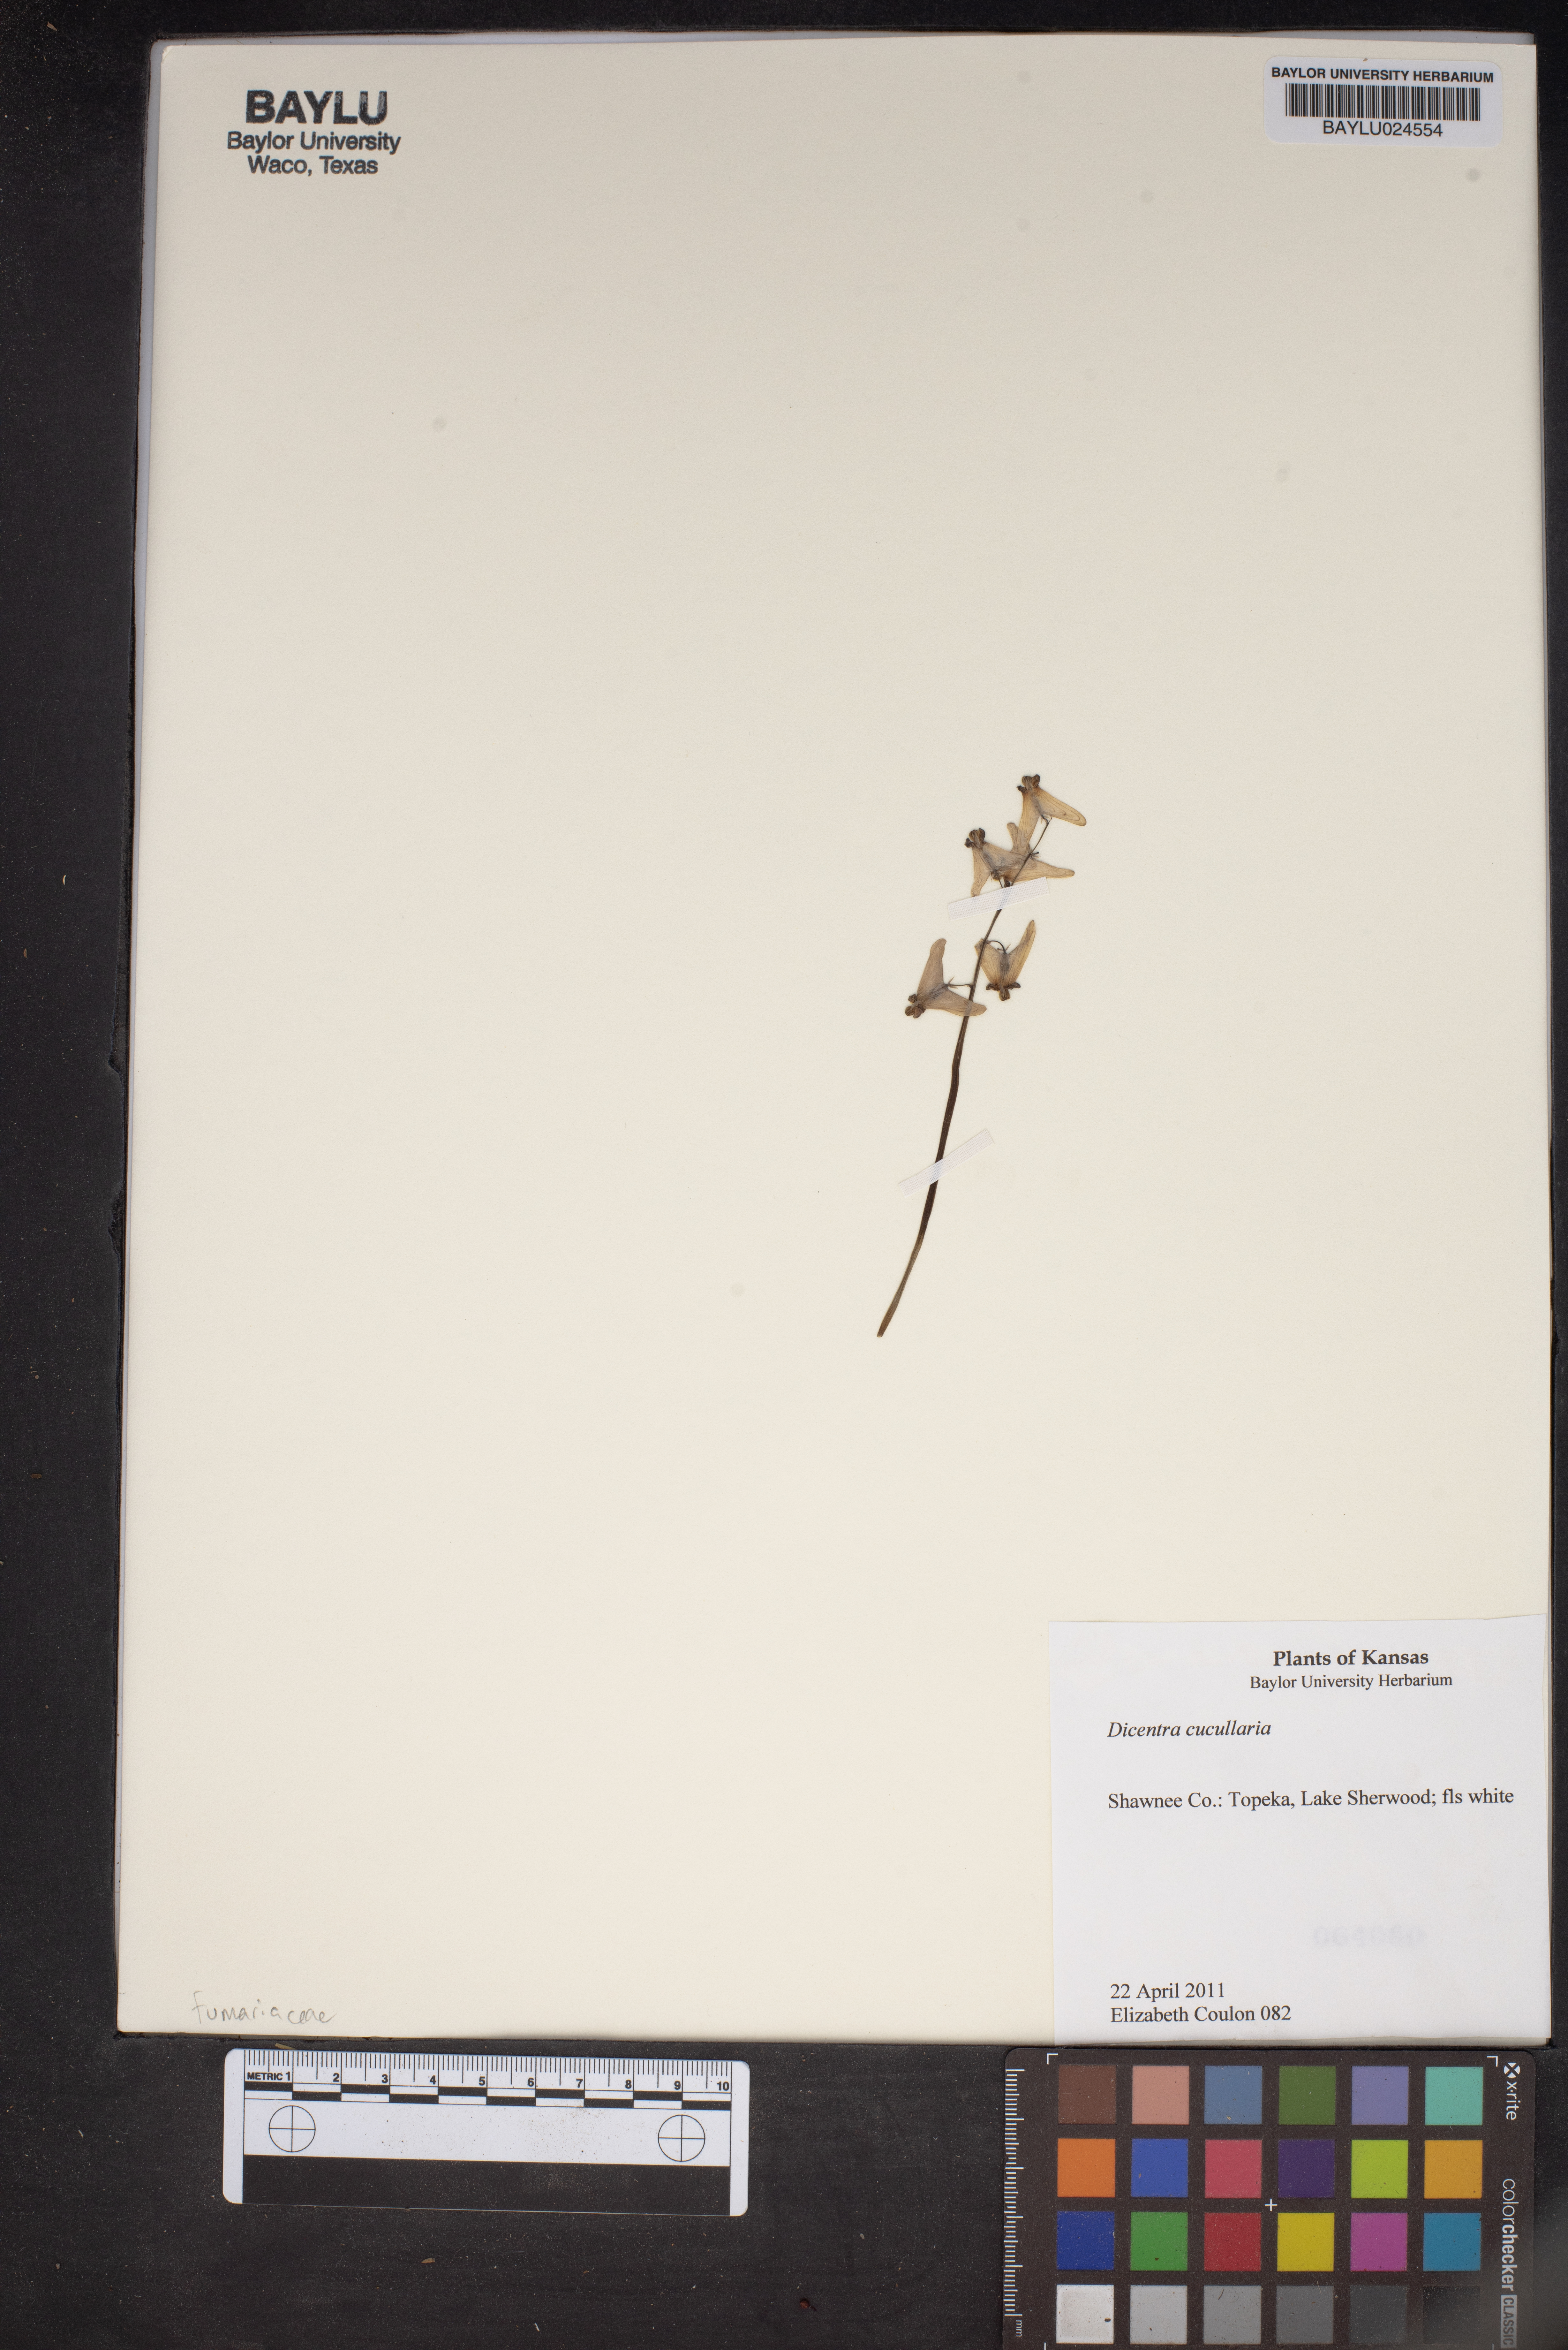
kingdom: Plantae
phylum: Tracheophyta
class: Magnoliopsida
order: Ranunculales
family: Papaveraceae
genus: Dicentra
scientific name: Dicentra cucullaria
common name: Dutchman's breeches
